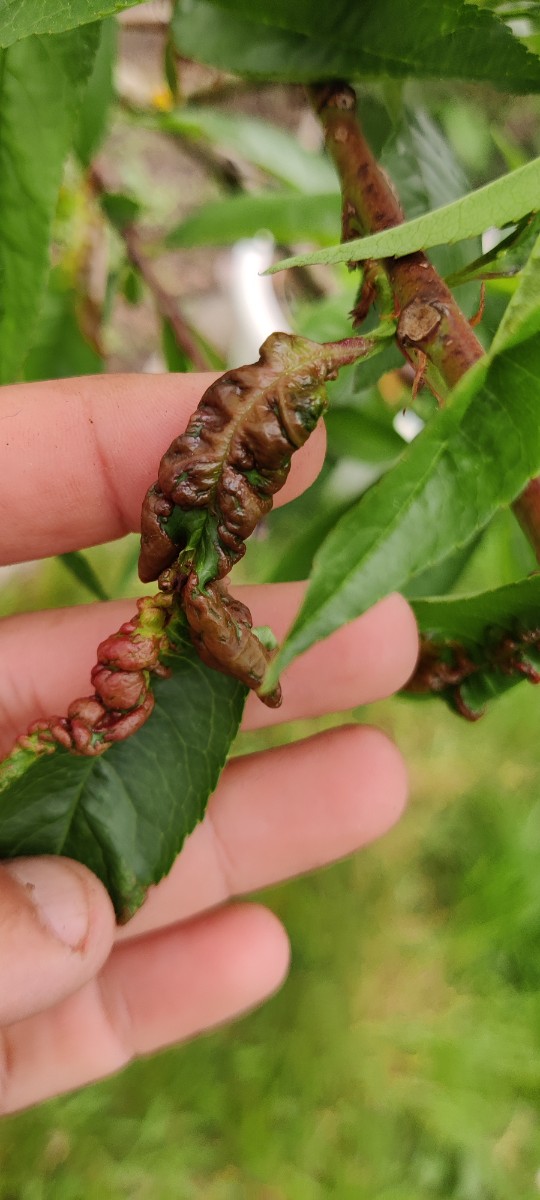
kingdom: Fungi
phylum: Ascomycota
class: Taphrinomycetes
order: Taphrinales
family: Taphrinaceae
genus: Taphrina
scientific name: Taphrina deformans
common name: Peach leaf curl
